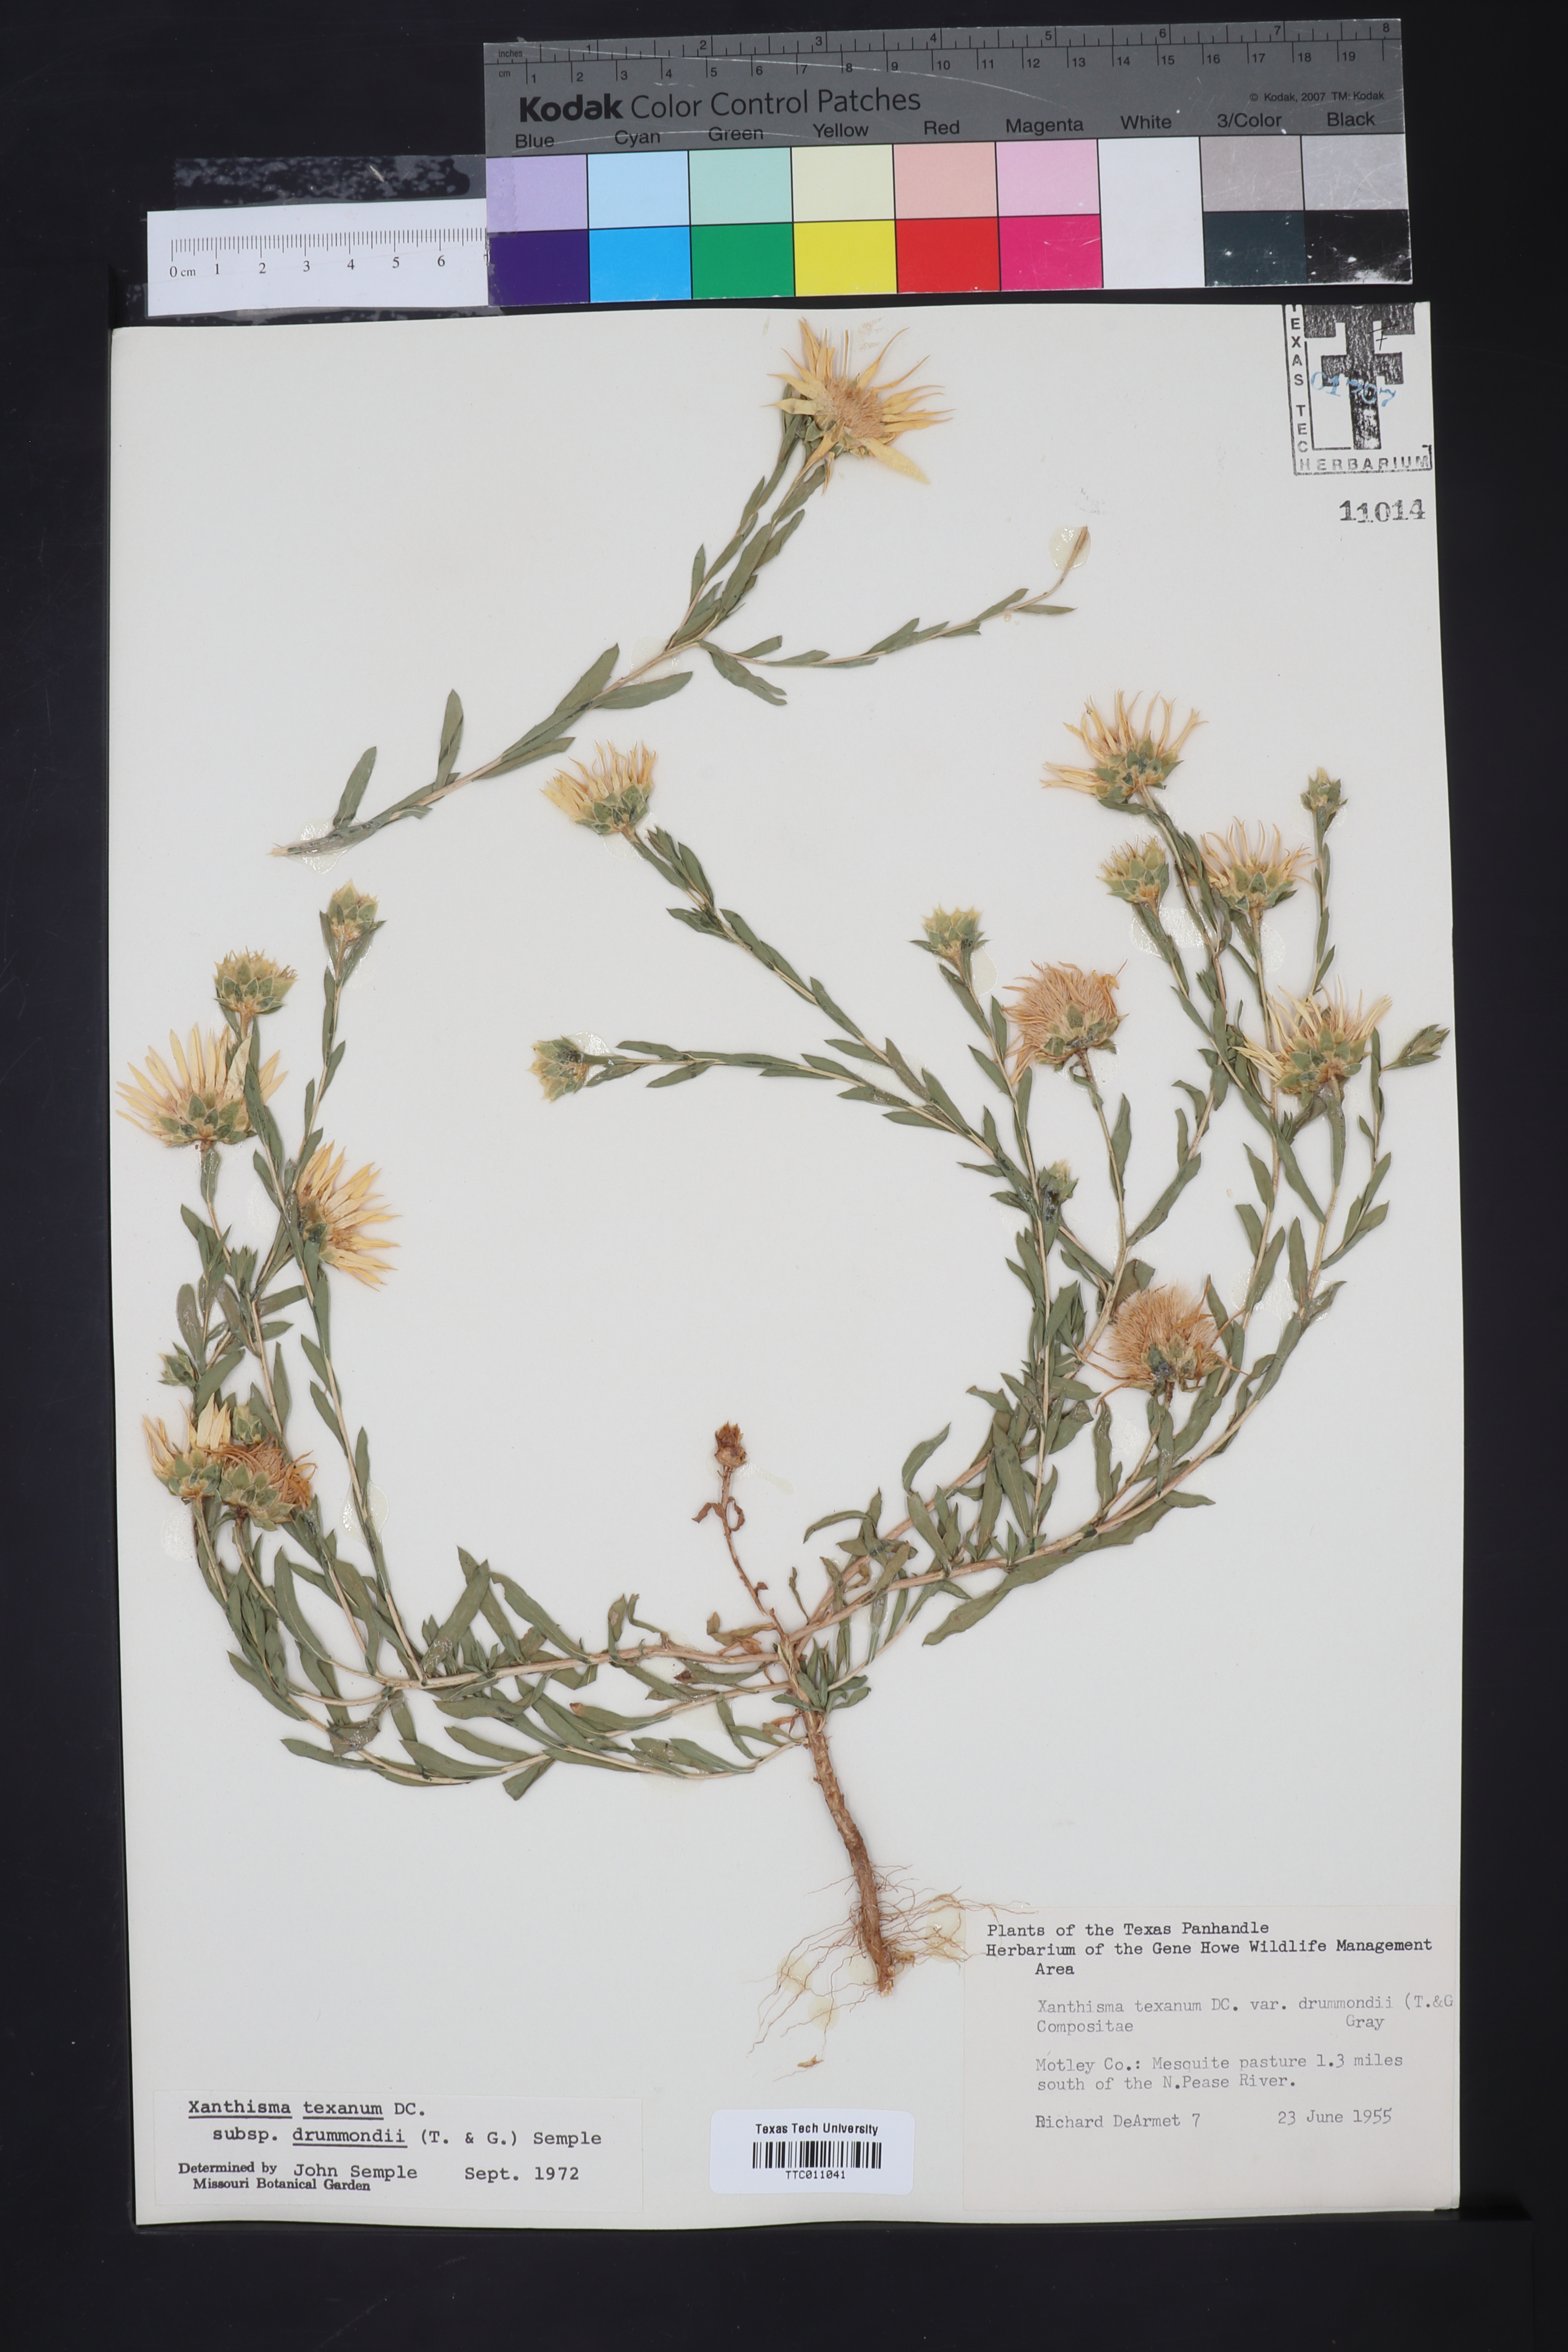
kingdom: Plantae
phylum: Tracheophyta
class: Magnoliopsida
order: Asterales
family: Asteraceae
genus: Xanthisma
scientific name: Xanthisma texanum
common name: Texas sleepy daisy
